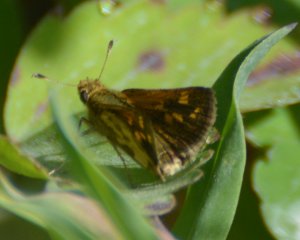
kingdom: Animalia
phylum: Arthropoda
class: Insecta
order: Lepidoptera
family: Hesperiidae
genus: Polites
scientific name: Polites coras
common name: Peck's Skipper
